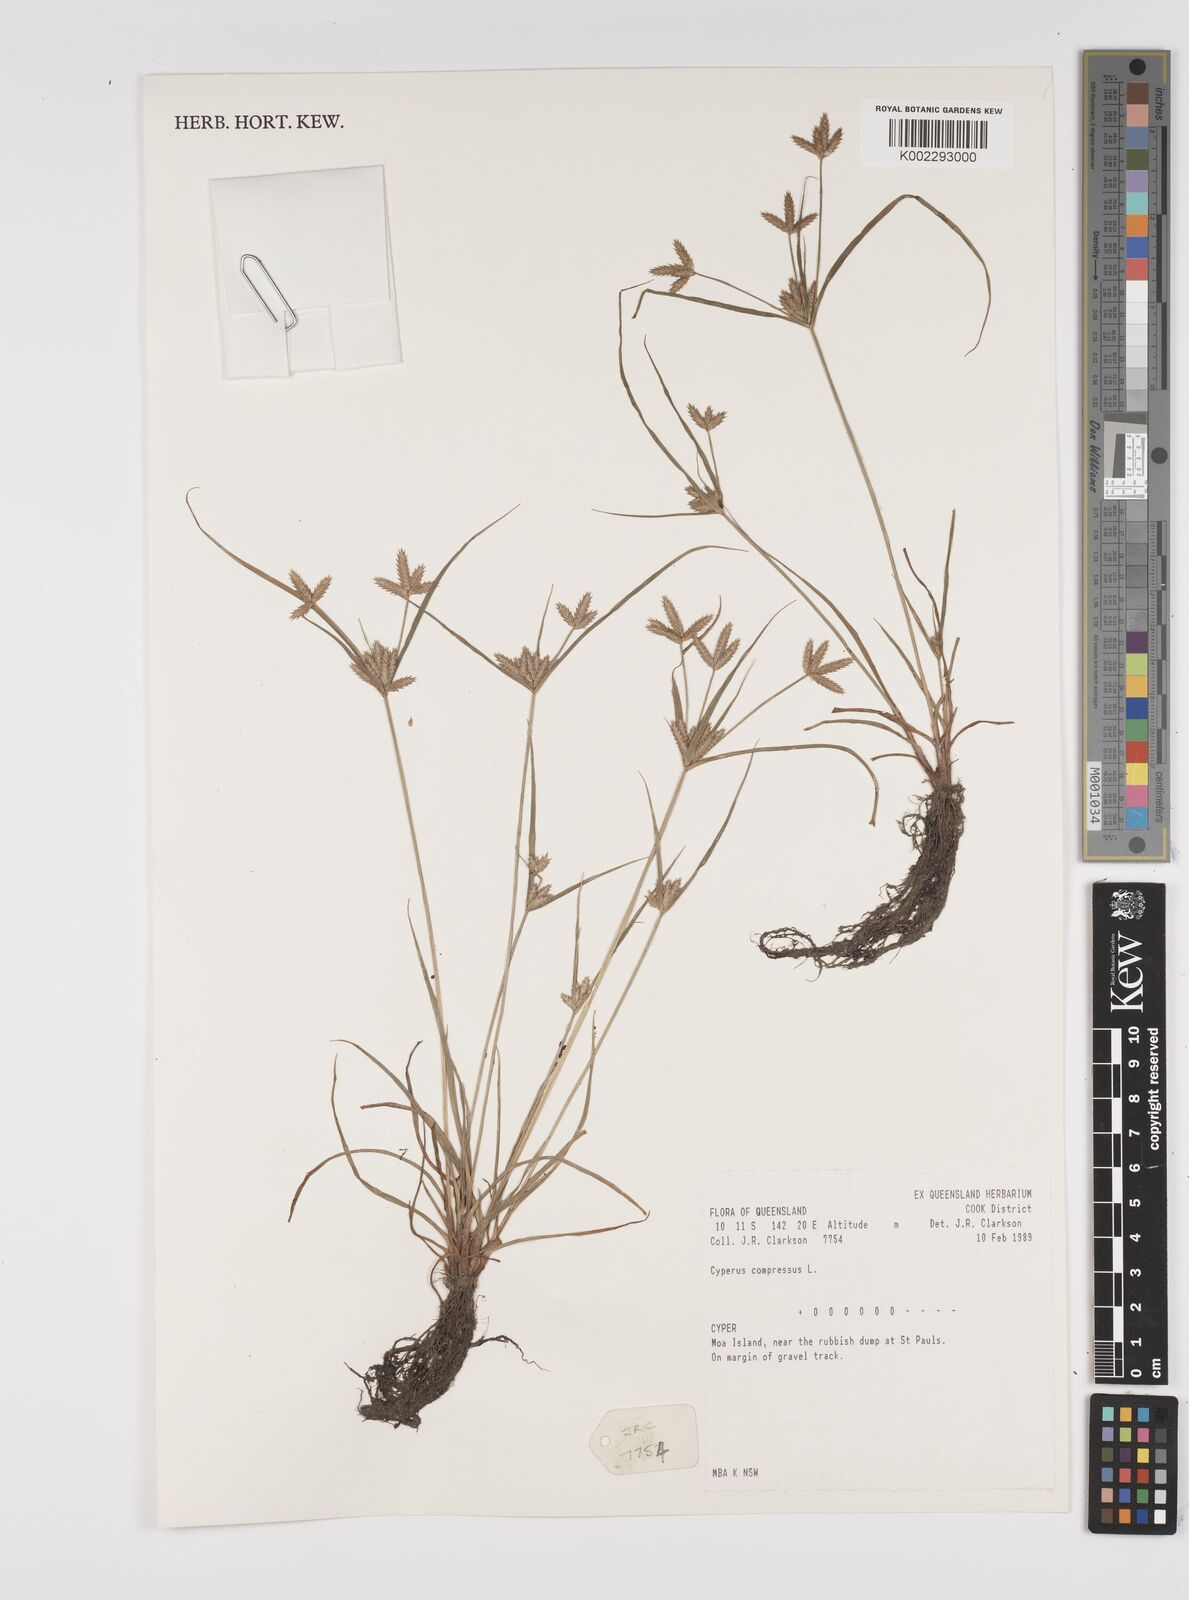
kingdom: Plantae
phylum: Tracheophyta
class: Liliopsida
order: Poales
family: Cyperaceae
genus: Cyperus
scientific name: Cyperus compressus
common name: Poorland flatsedge
